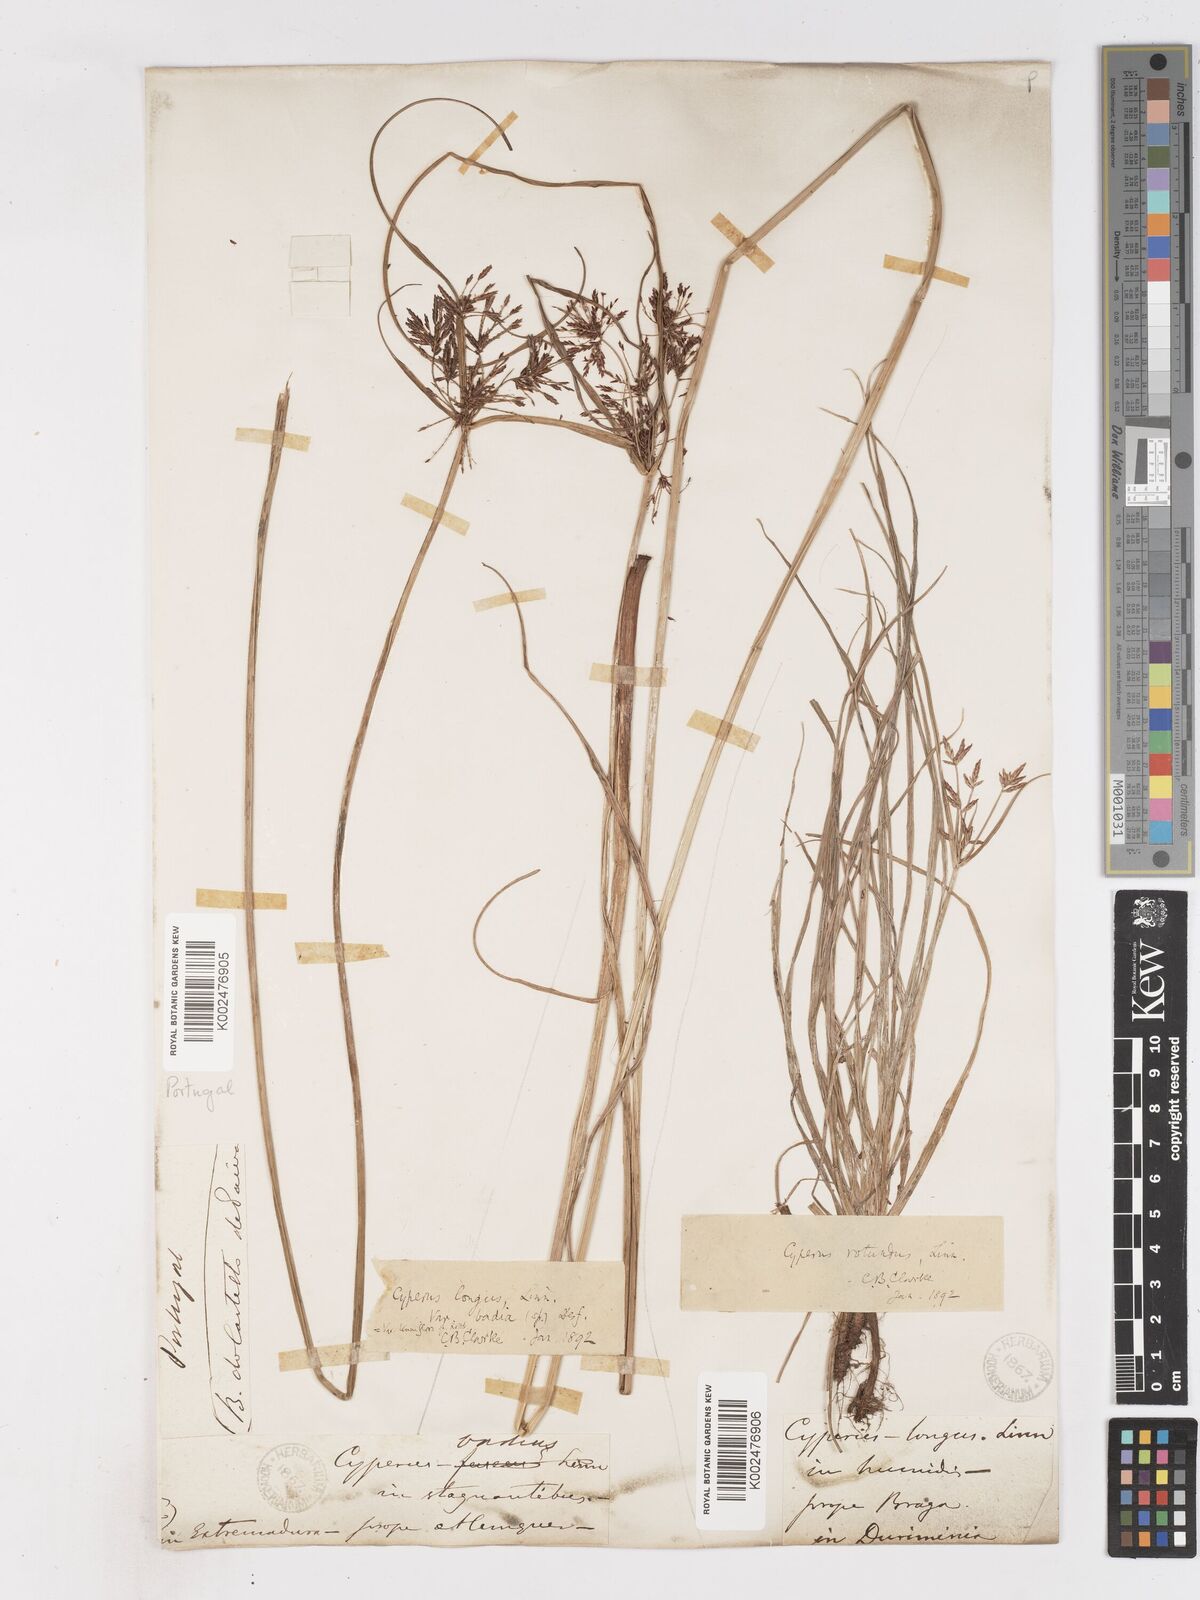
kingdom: Plantae
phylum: Tracheophyta
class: Liliopsida
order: Poales
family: Cyperaceae
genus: Cyperus
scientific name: Cyperus longus
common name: Galingale
